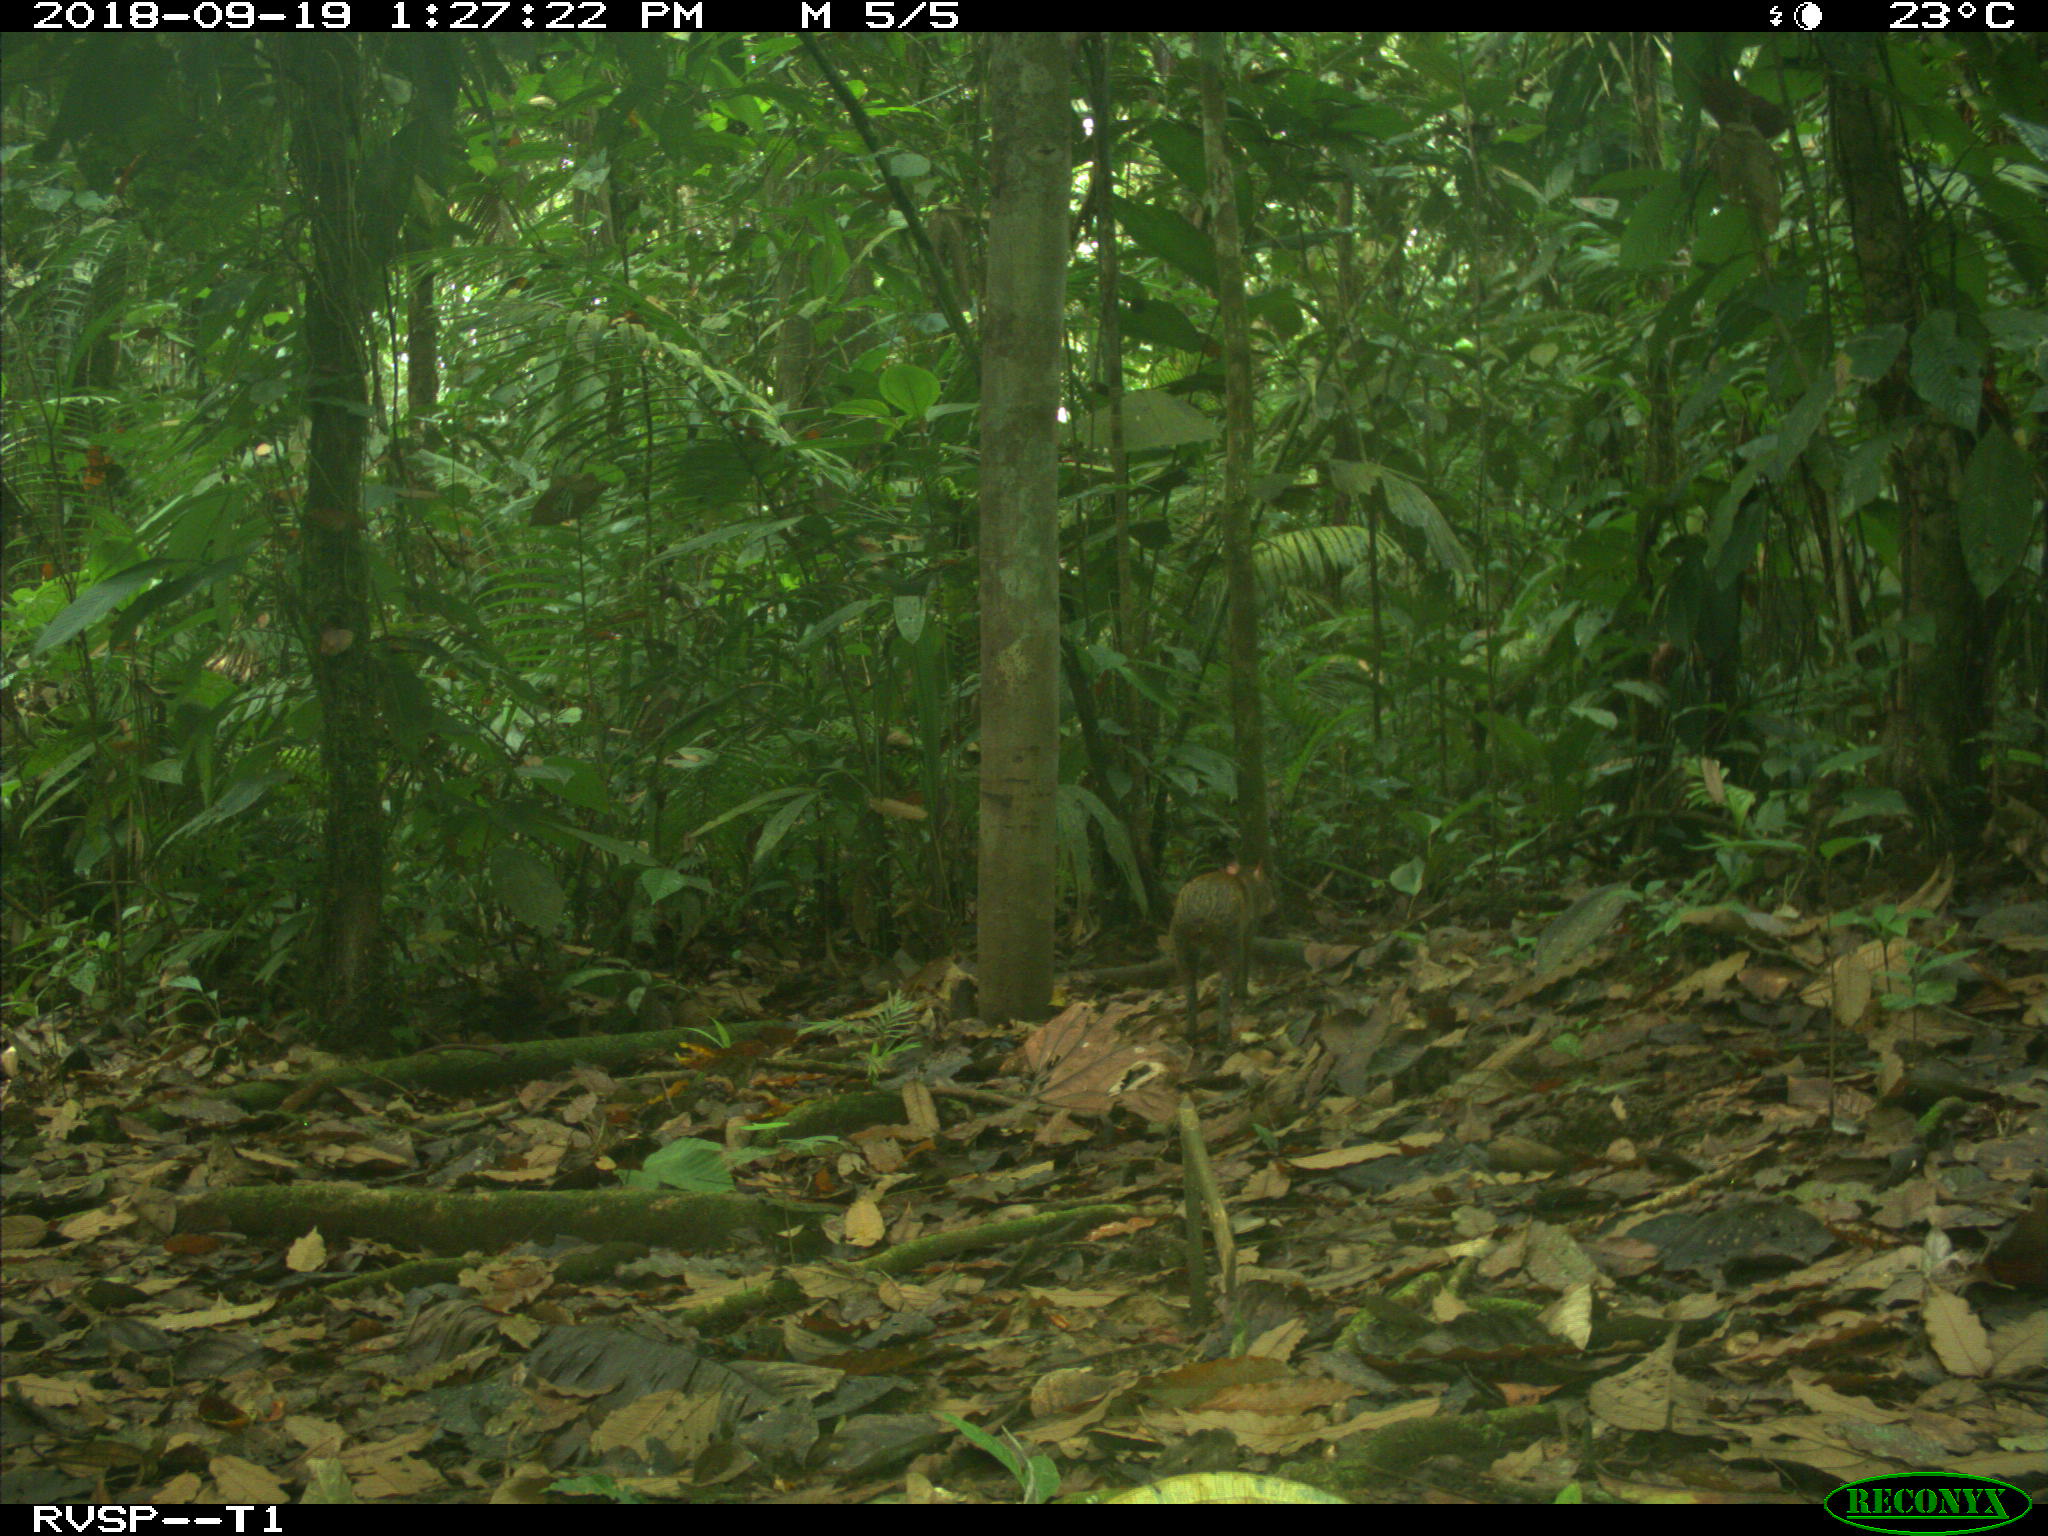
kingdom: Animalia
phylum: Chordata
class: Mammalia
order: Rodentia
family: Dasyproctidae
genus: Dasyprocta
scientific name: Dasyprocta punctata
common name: Central american agouti
